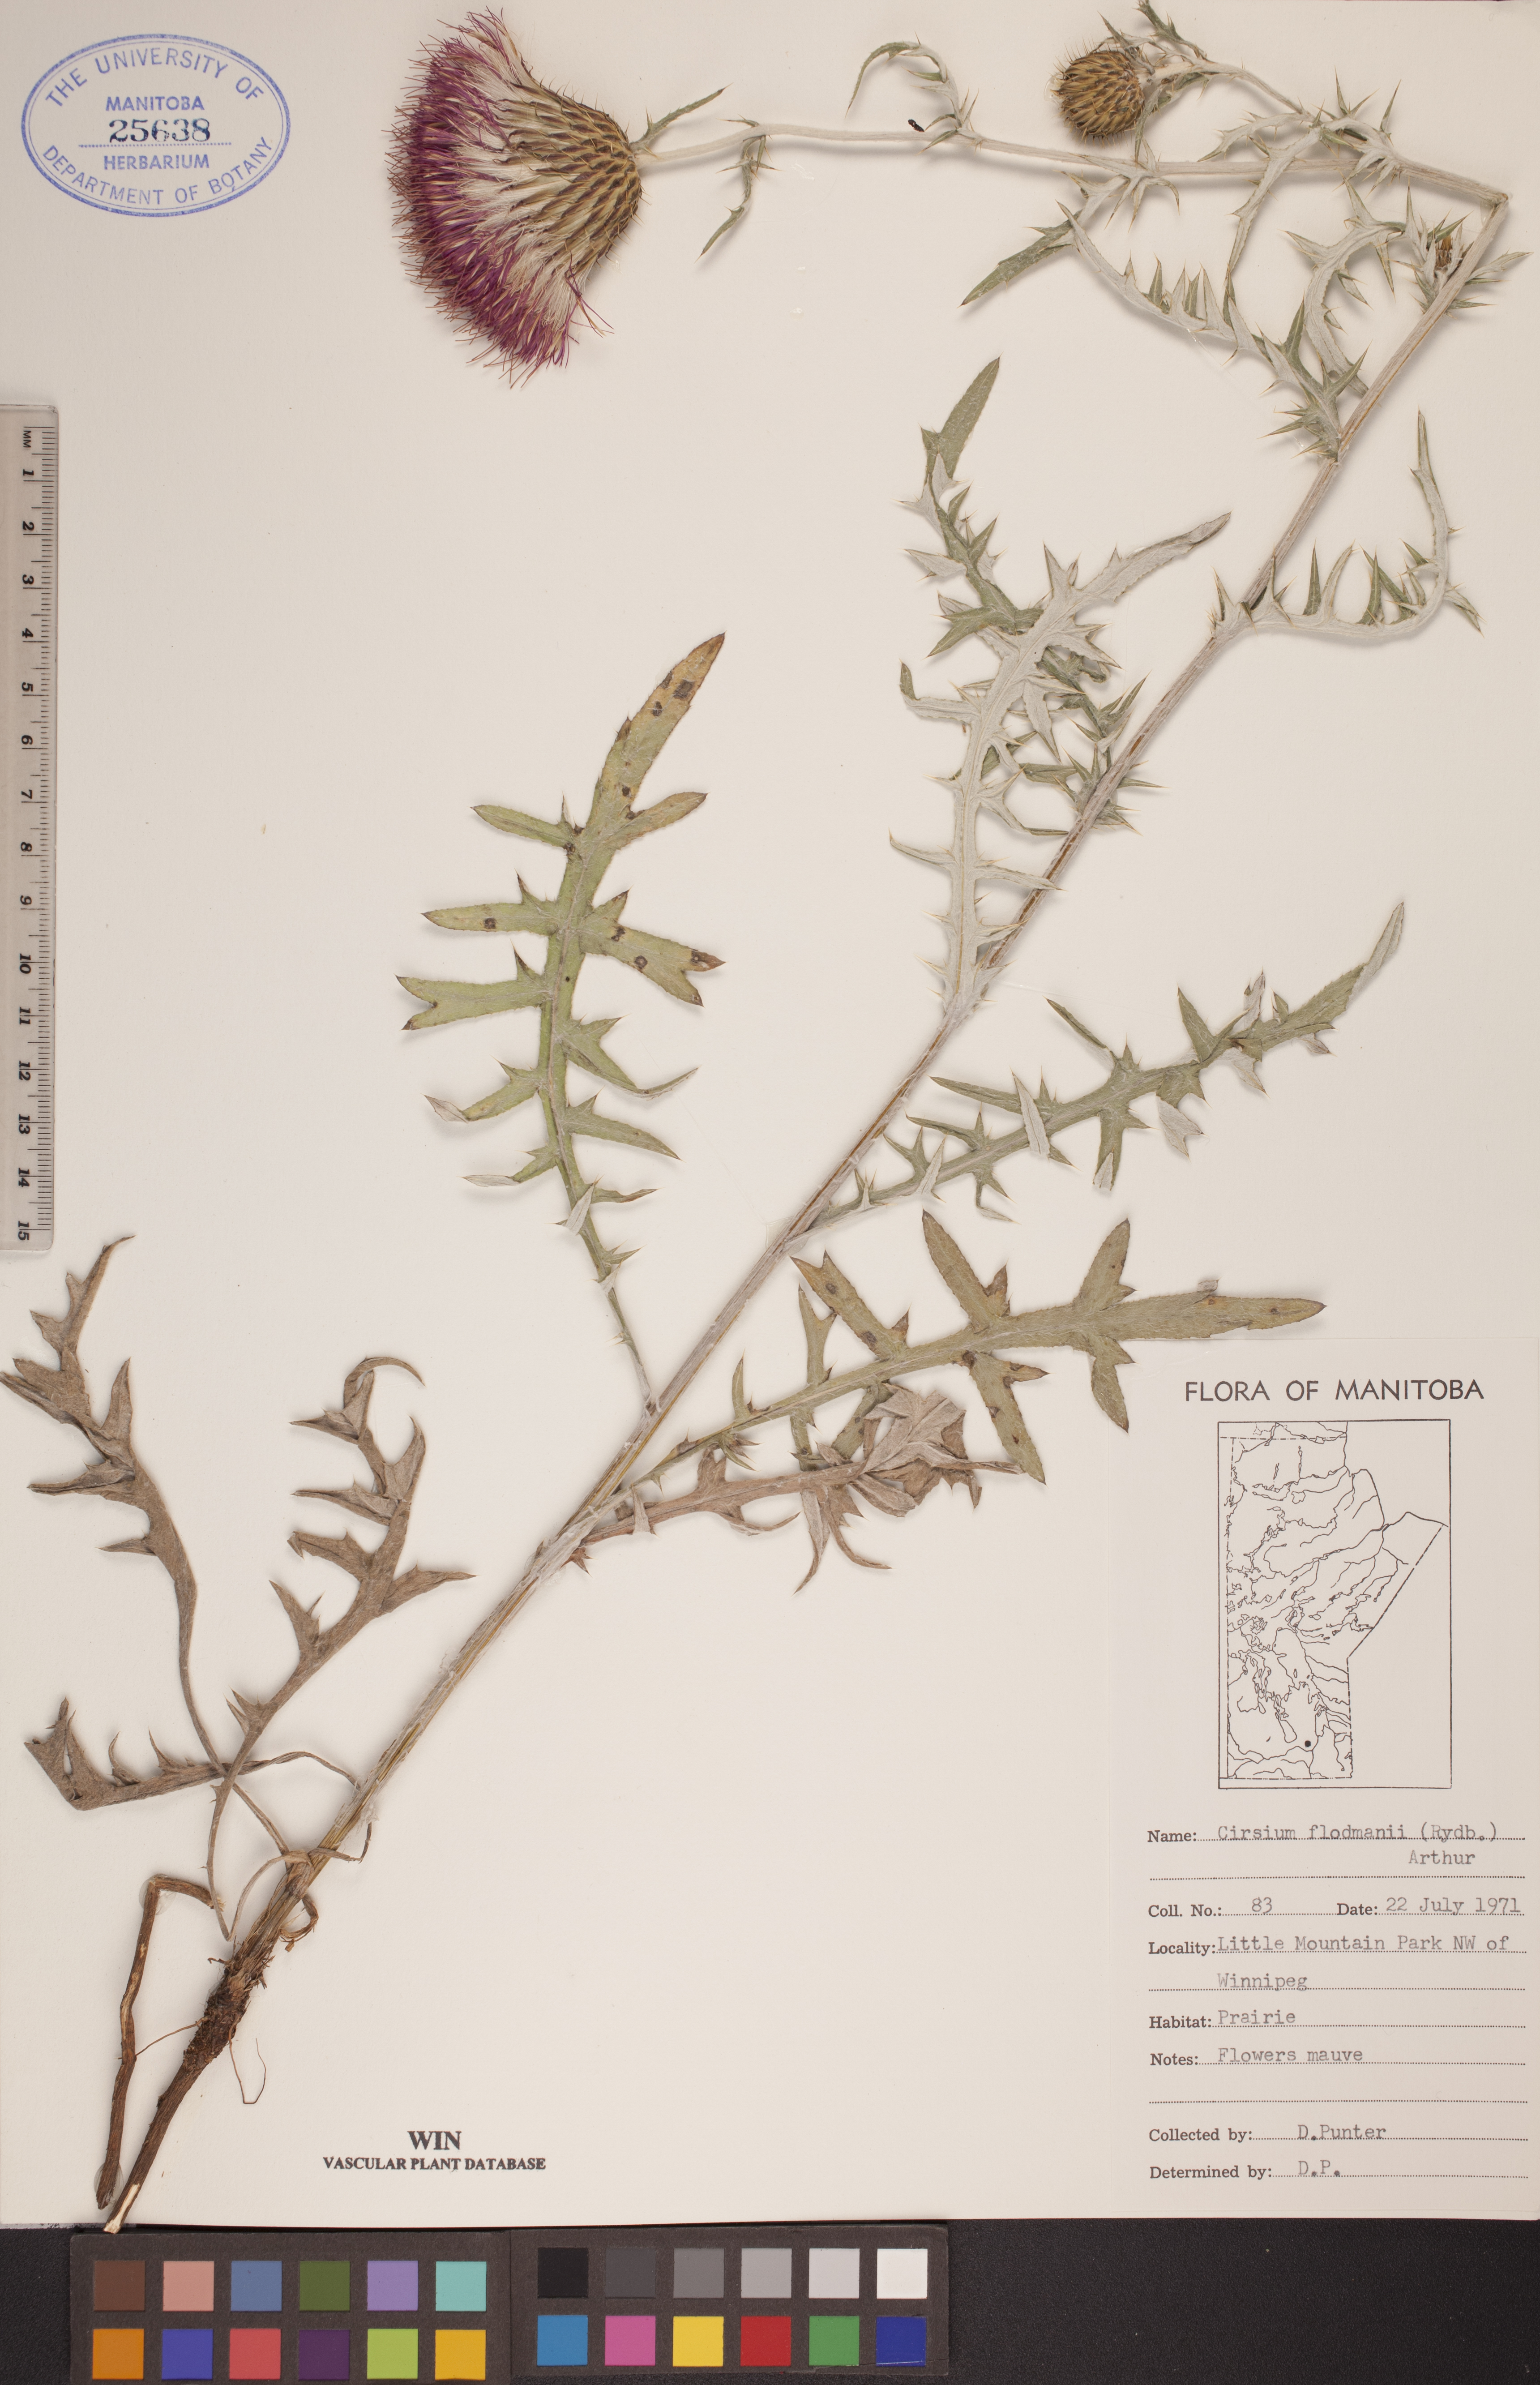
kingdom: Plantae
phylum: Tracheophyta
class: Magnoliopsida
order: Asterales
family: Asteraceae
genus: Cirsium
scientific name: Cirsium flodmanii
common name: Flodman's thistle
